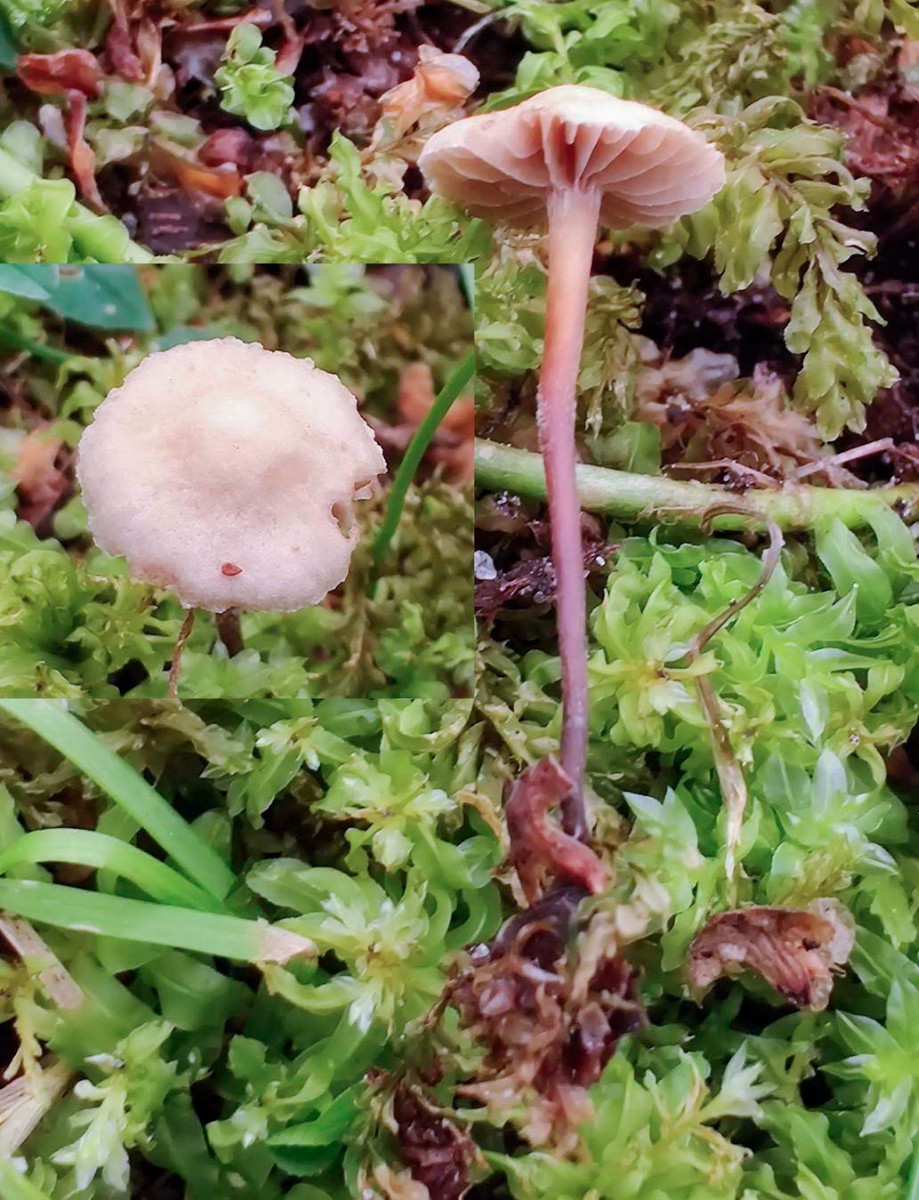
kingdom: Fungi
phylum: Basidiomycota
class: Agaricomycetes
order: Agaricales
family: Omphalotaceae
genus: Mycetinis
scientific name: Mycetinis scorodonius
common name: lille løghat
